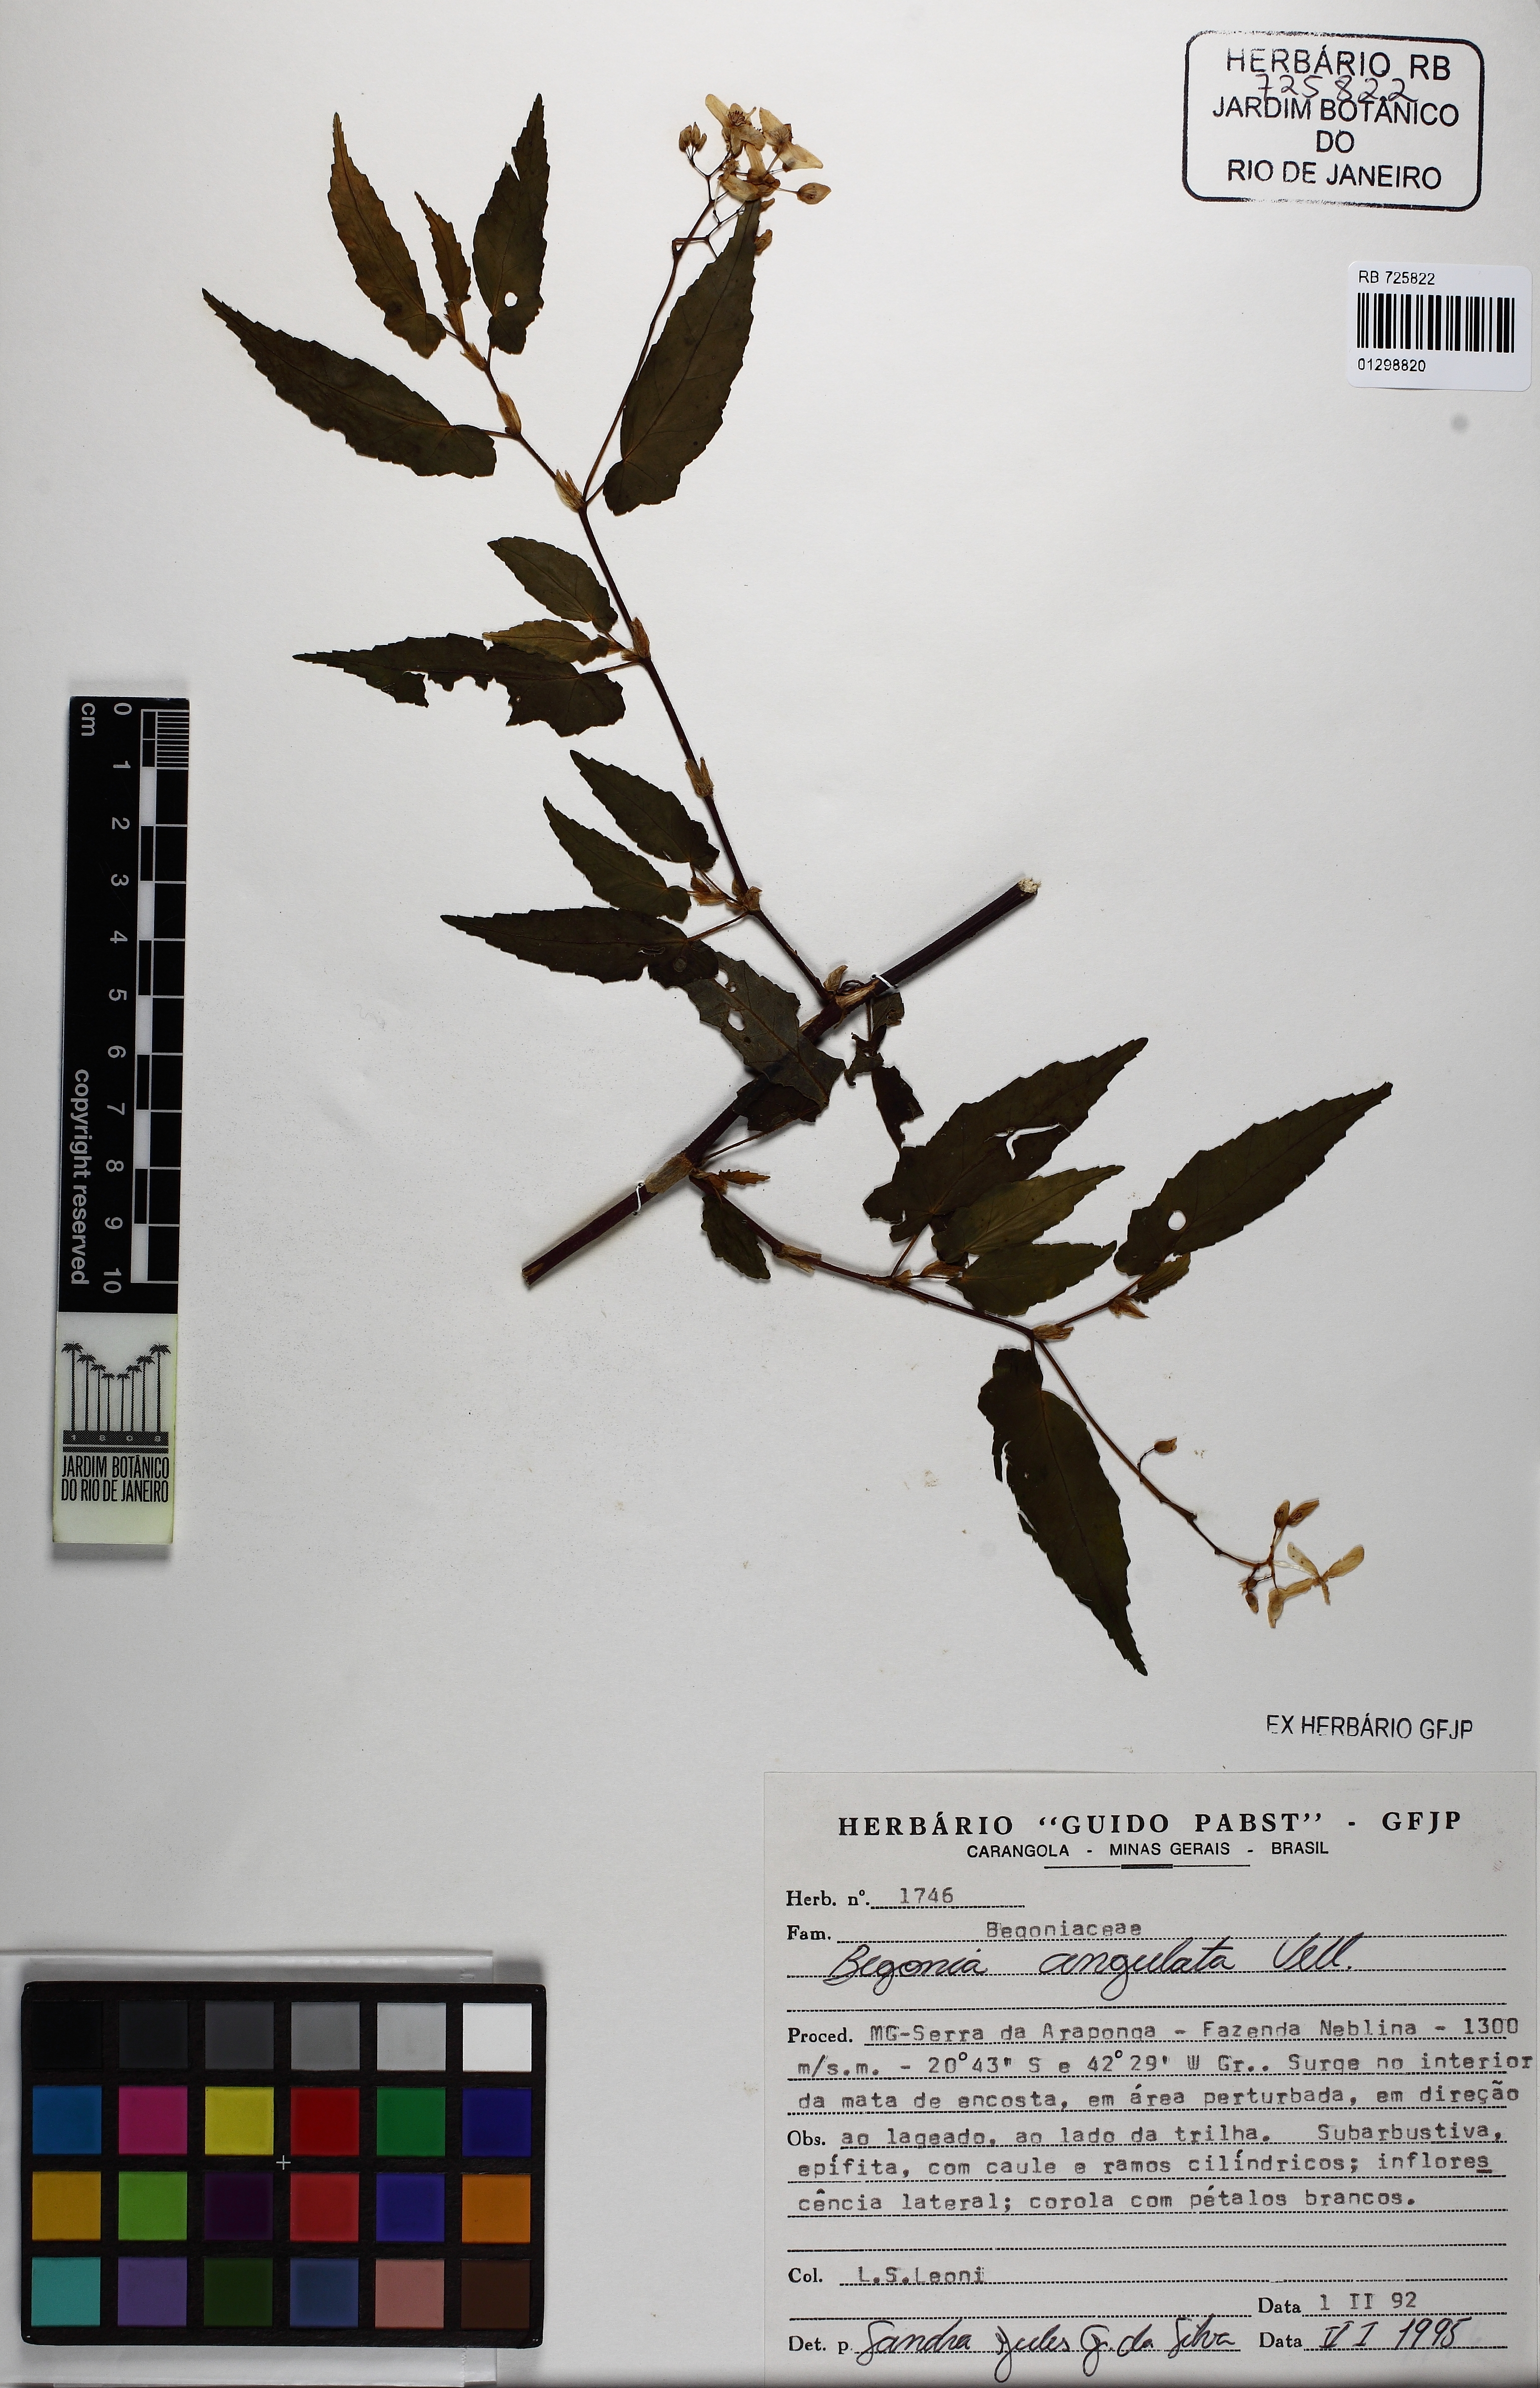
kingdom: Plantae
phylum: Tracheophyta
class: Magnoliopsida
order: Cucurbitales
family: Begoniaceae
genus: Begonia
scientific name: Begonia angulata
